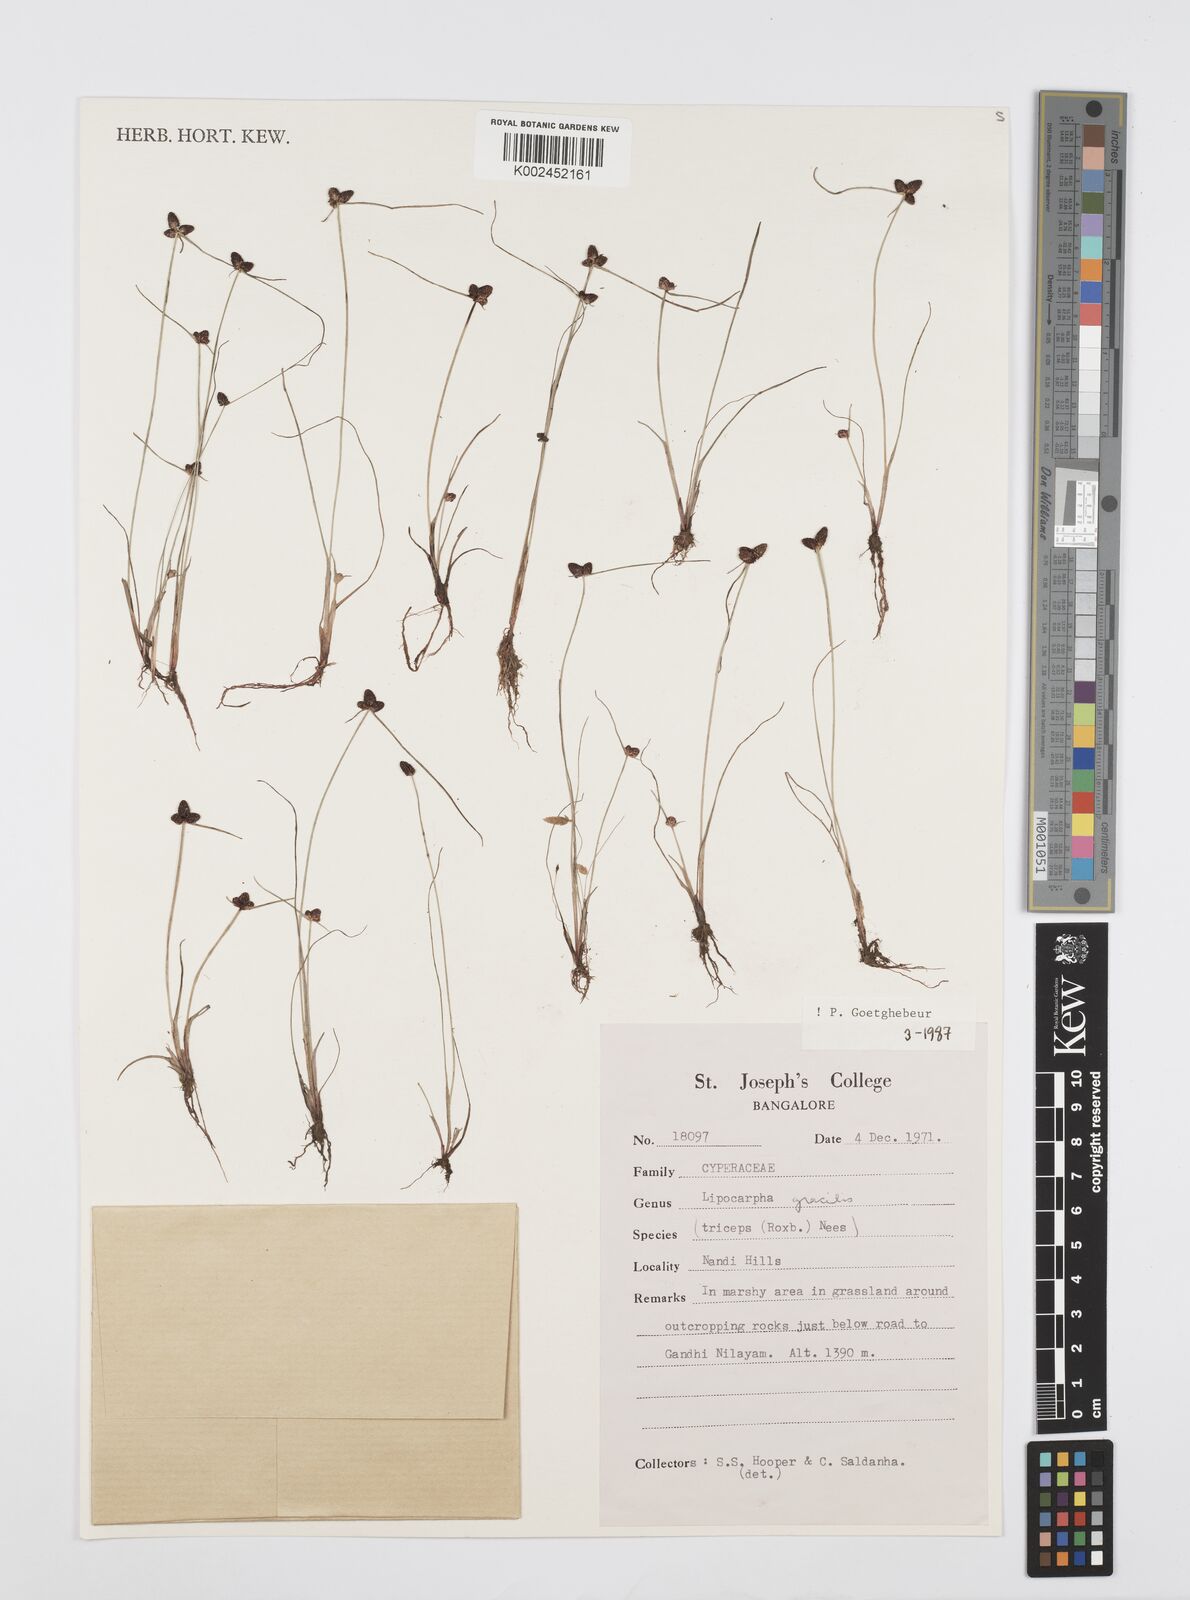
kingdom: Plantae
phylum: Tracheophyta
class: Liliopsida
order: Poales
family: Cyperaceae
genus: Cyperus
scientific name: Cyperus sphacelatus
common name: Roadside flatsedge
